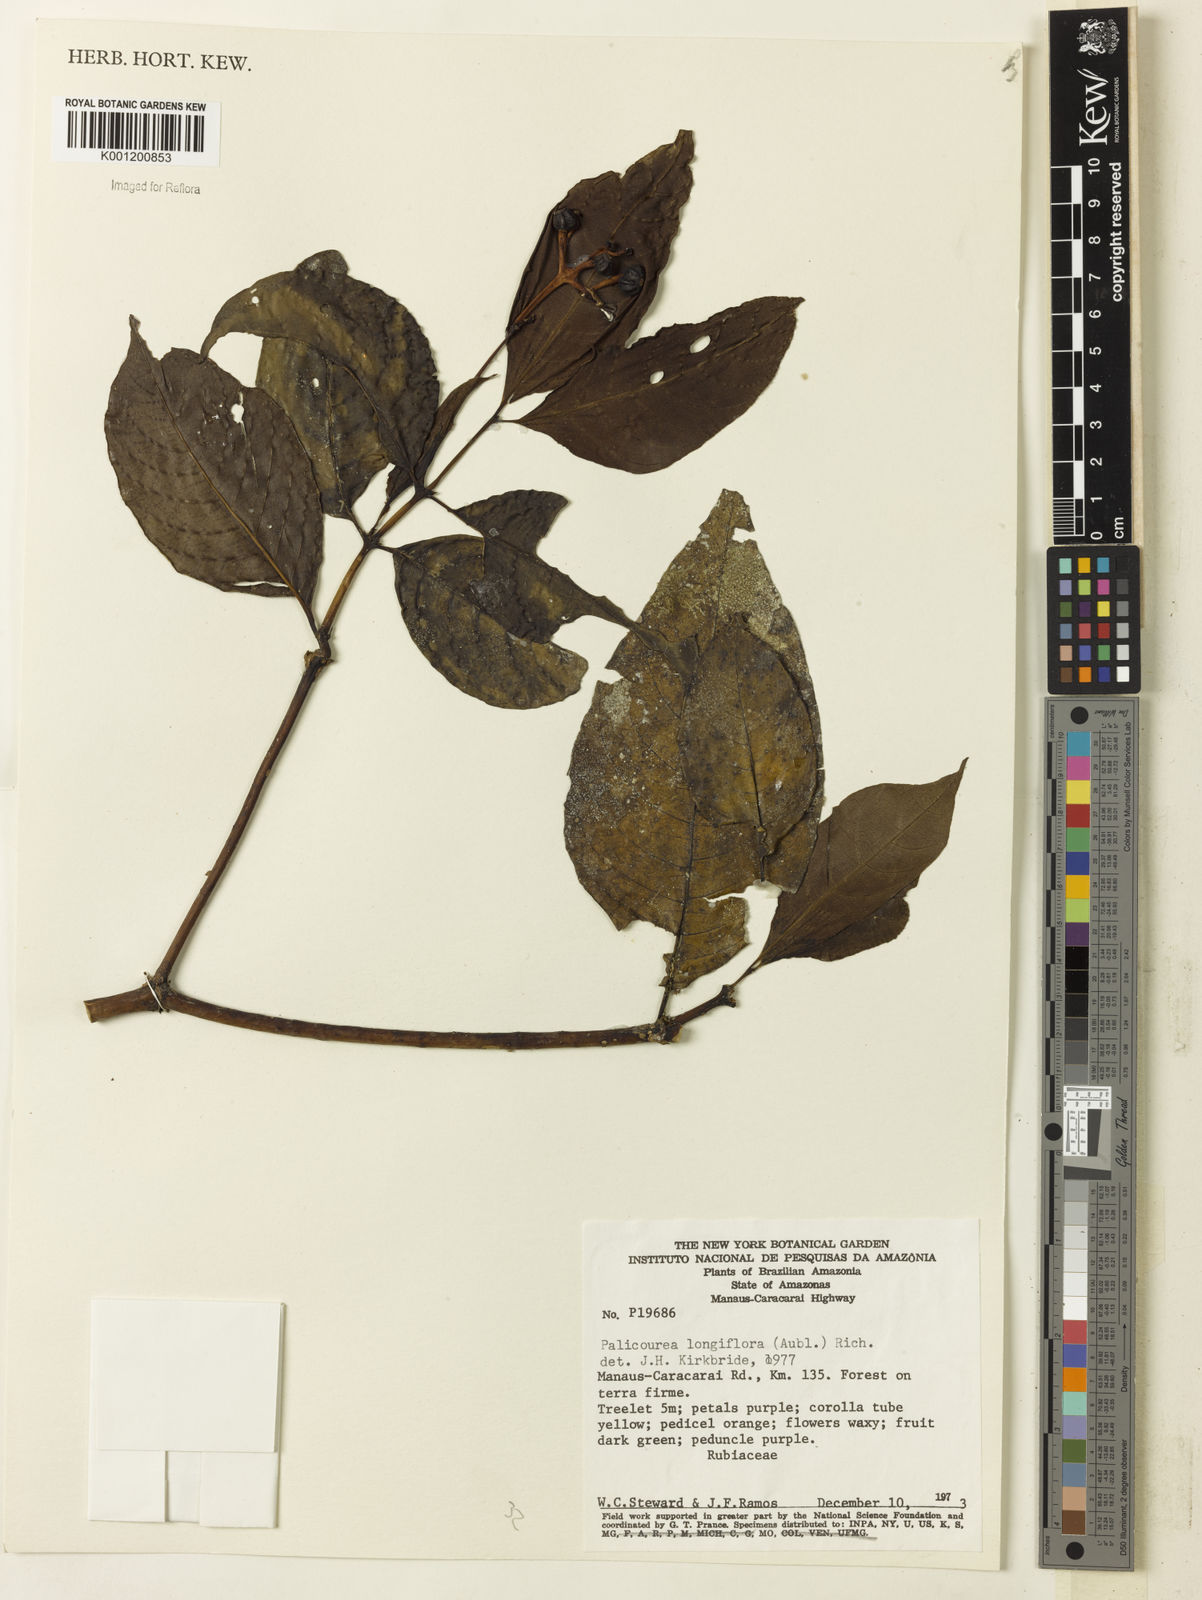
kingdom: Plantae
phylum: Tracheophyta
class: Magnoliopsida
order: Gentianales
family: Rubiaceae
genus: Palicourea
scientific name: Palicourea longiflora
